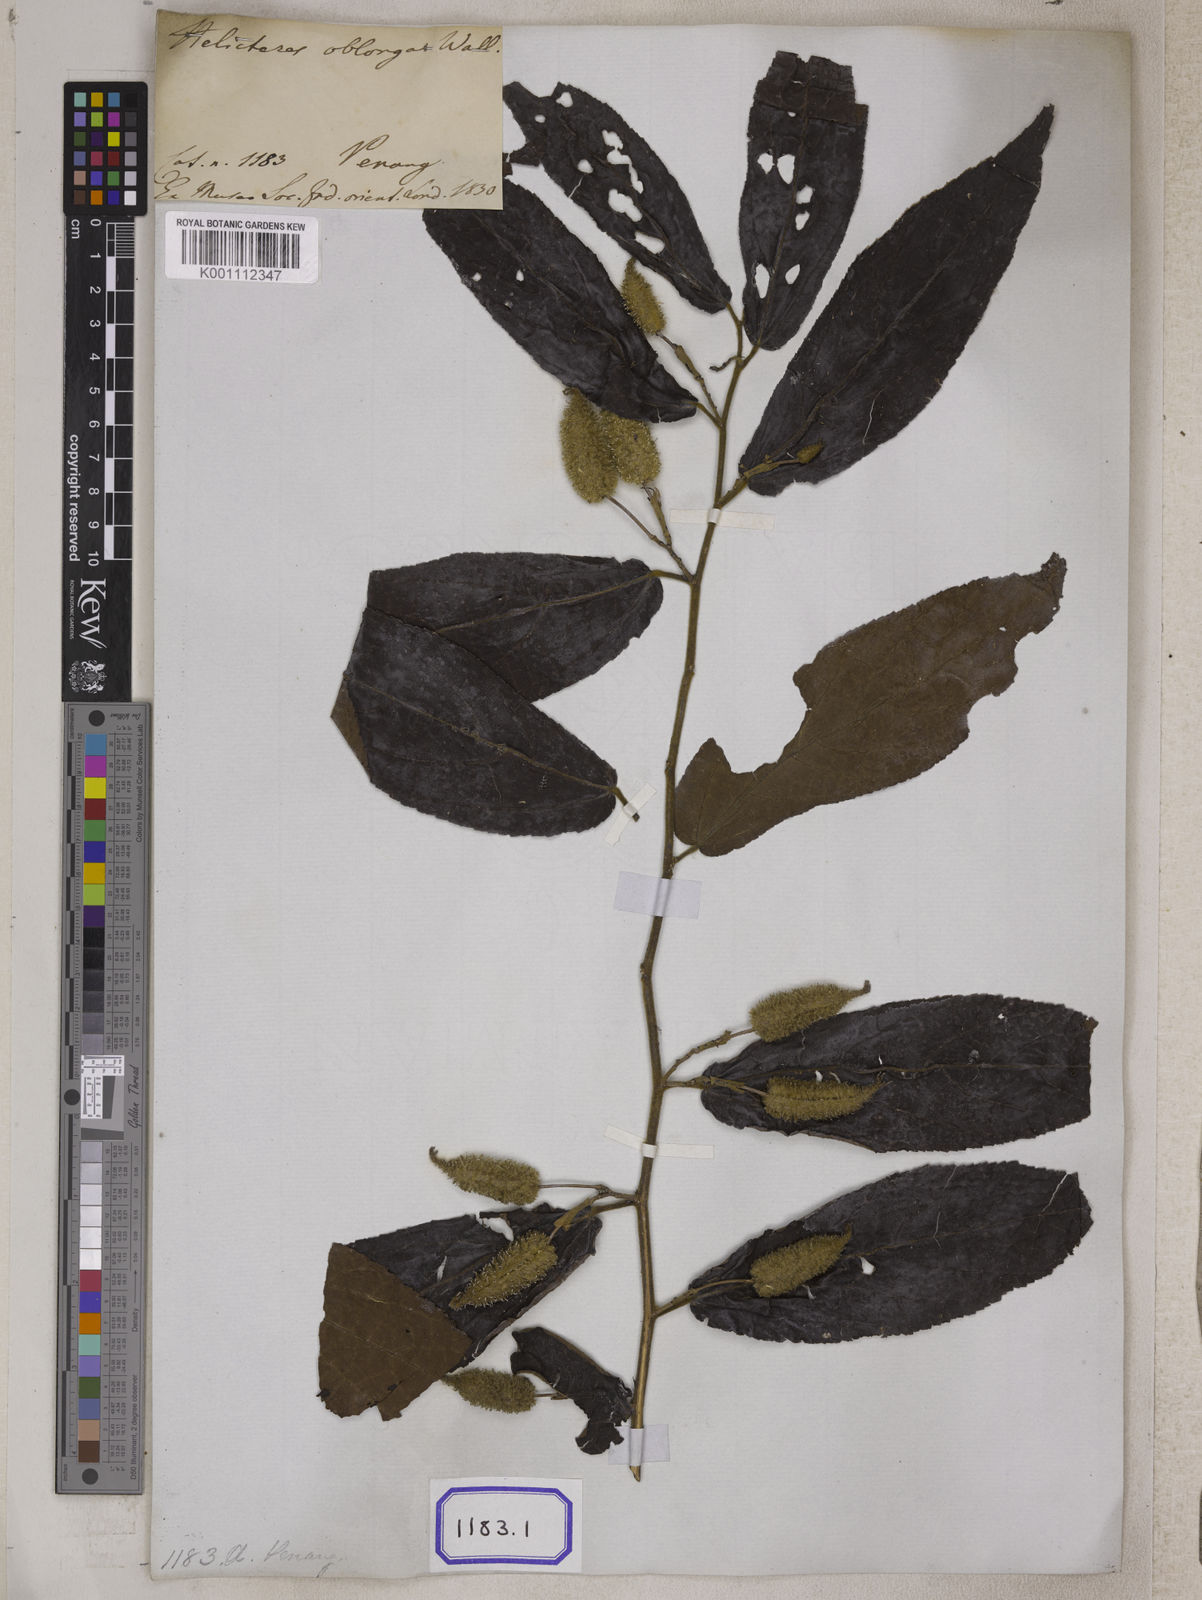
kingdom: Plantae
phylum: Tracheophyta
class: Magnoliopsida
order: Malvales
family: Malvaceae
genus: Helicteres
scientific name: Helicteres
